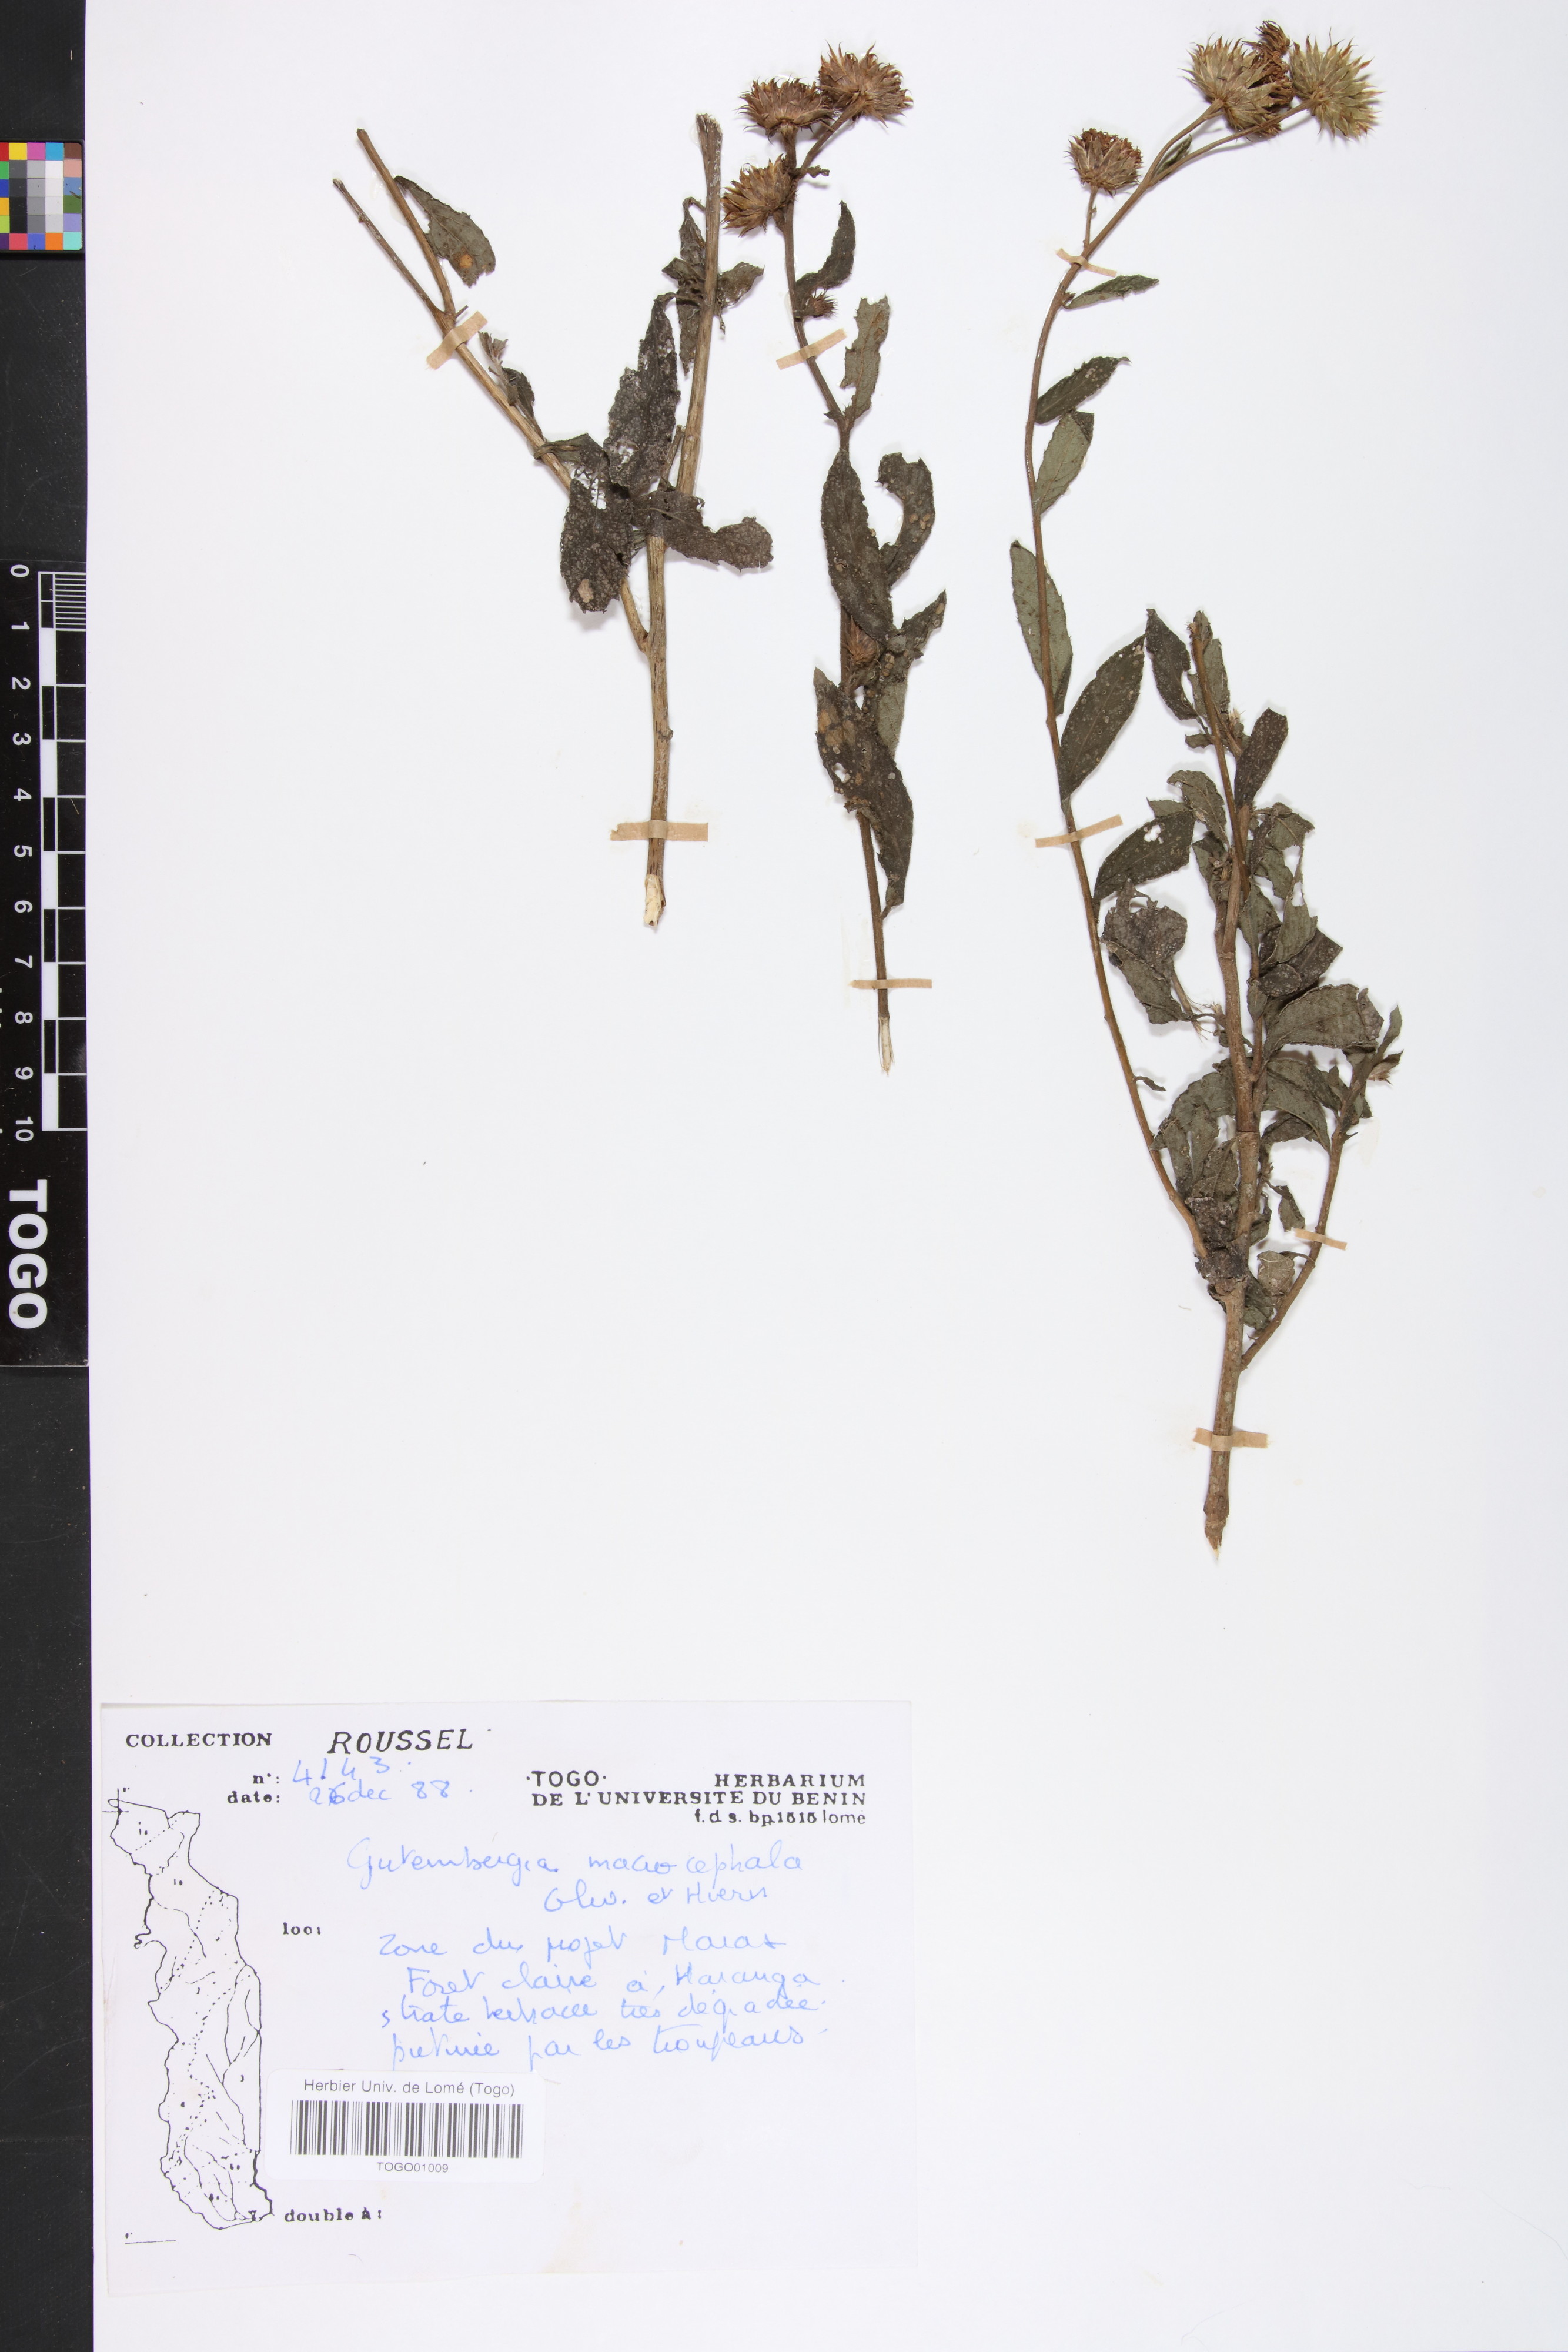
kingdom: Plantae
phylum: Tracheophyta
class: Magnoliopsida
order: Asterales
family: Asteraceae
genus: Kinghamia
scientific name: Kinghamia macrocephala
